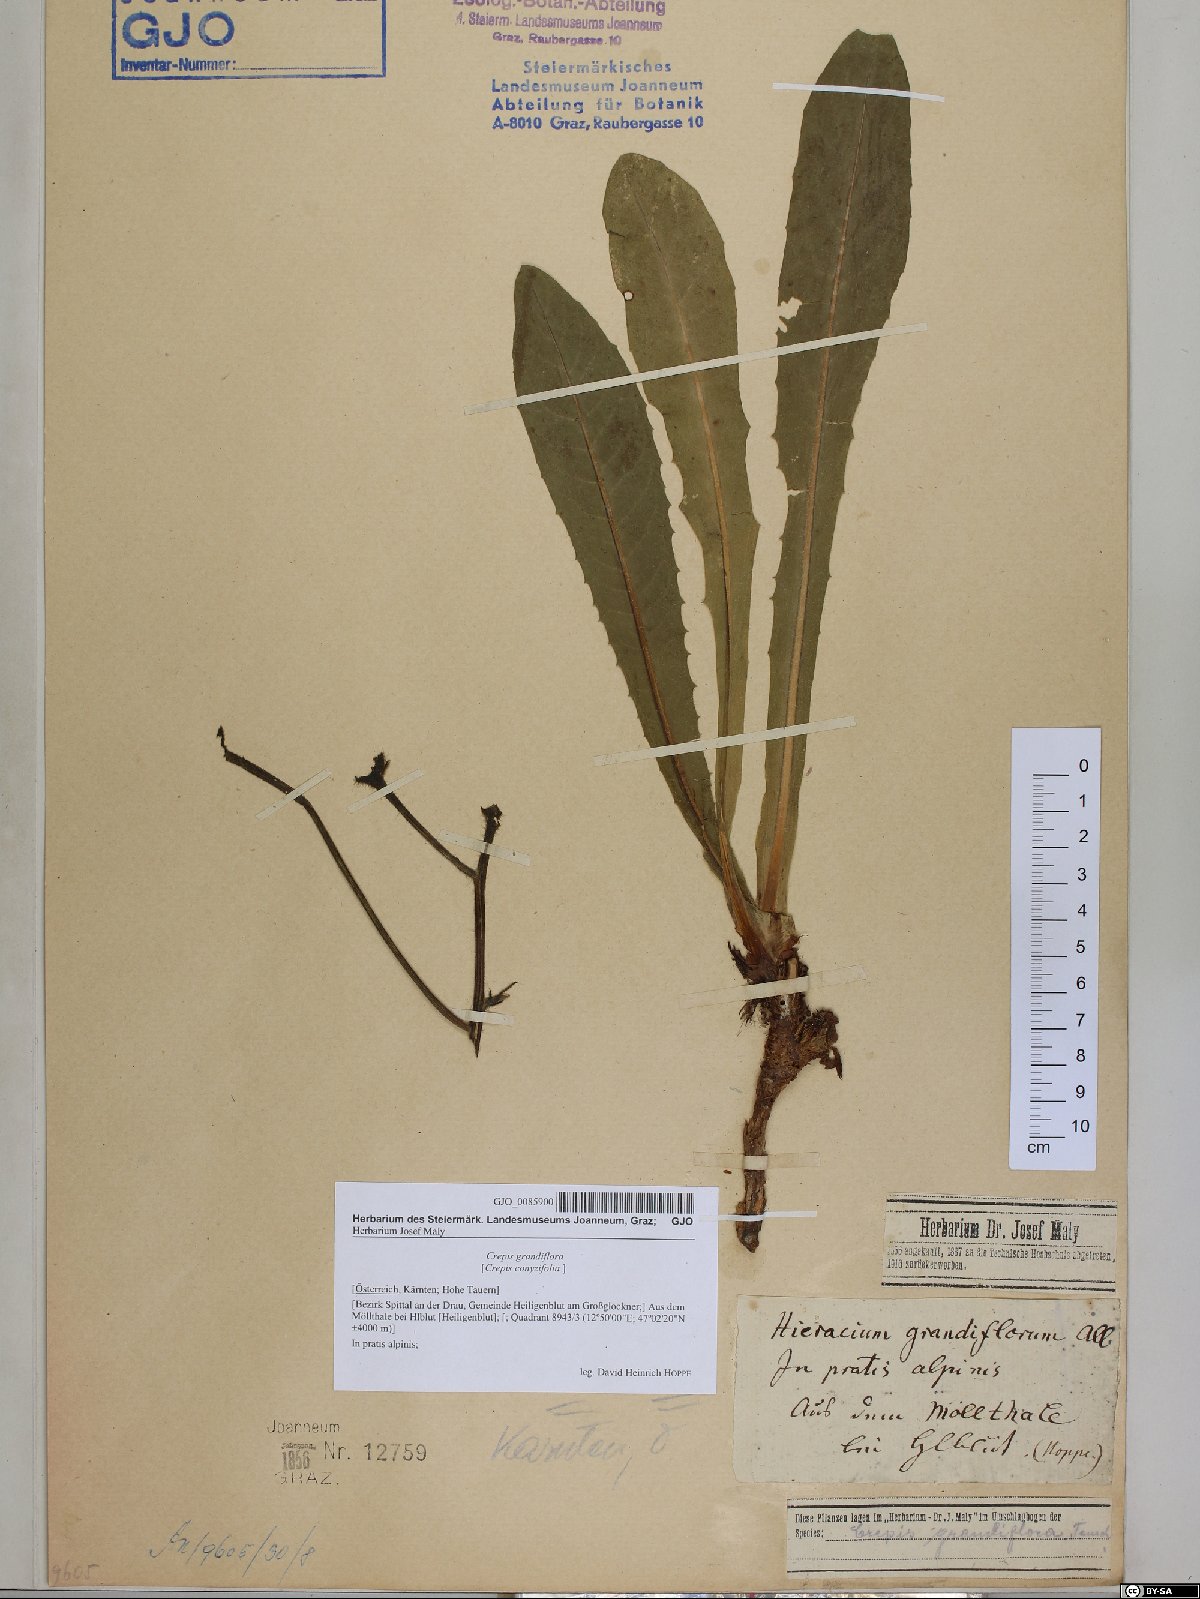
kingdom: Plantae
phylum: Tracheophyta
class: Magnoliopsida
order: Asterales
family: Asteraceae
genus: Crepis
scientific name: Crepis pyrenaica
